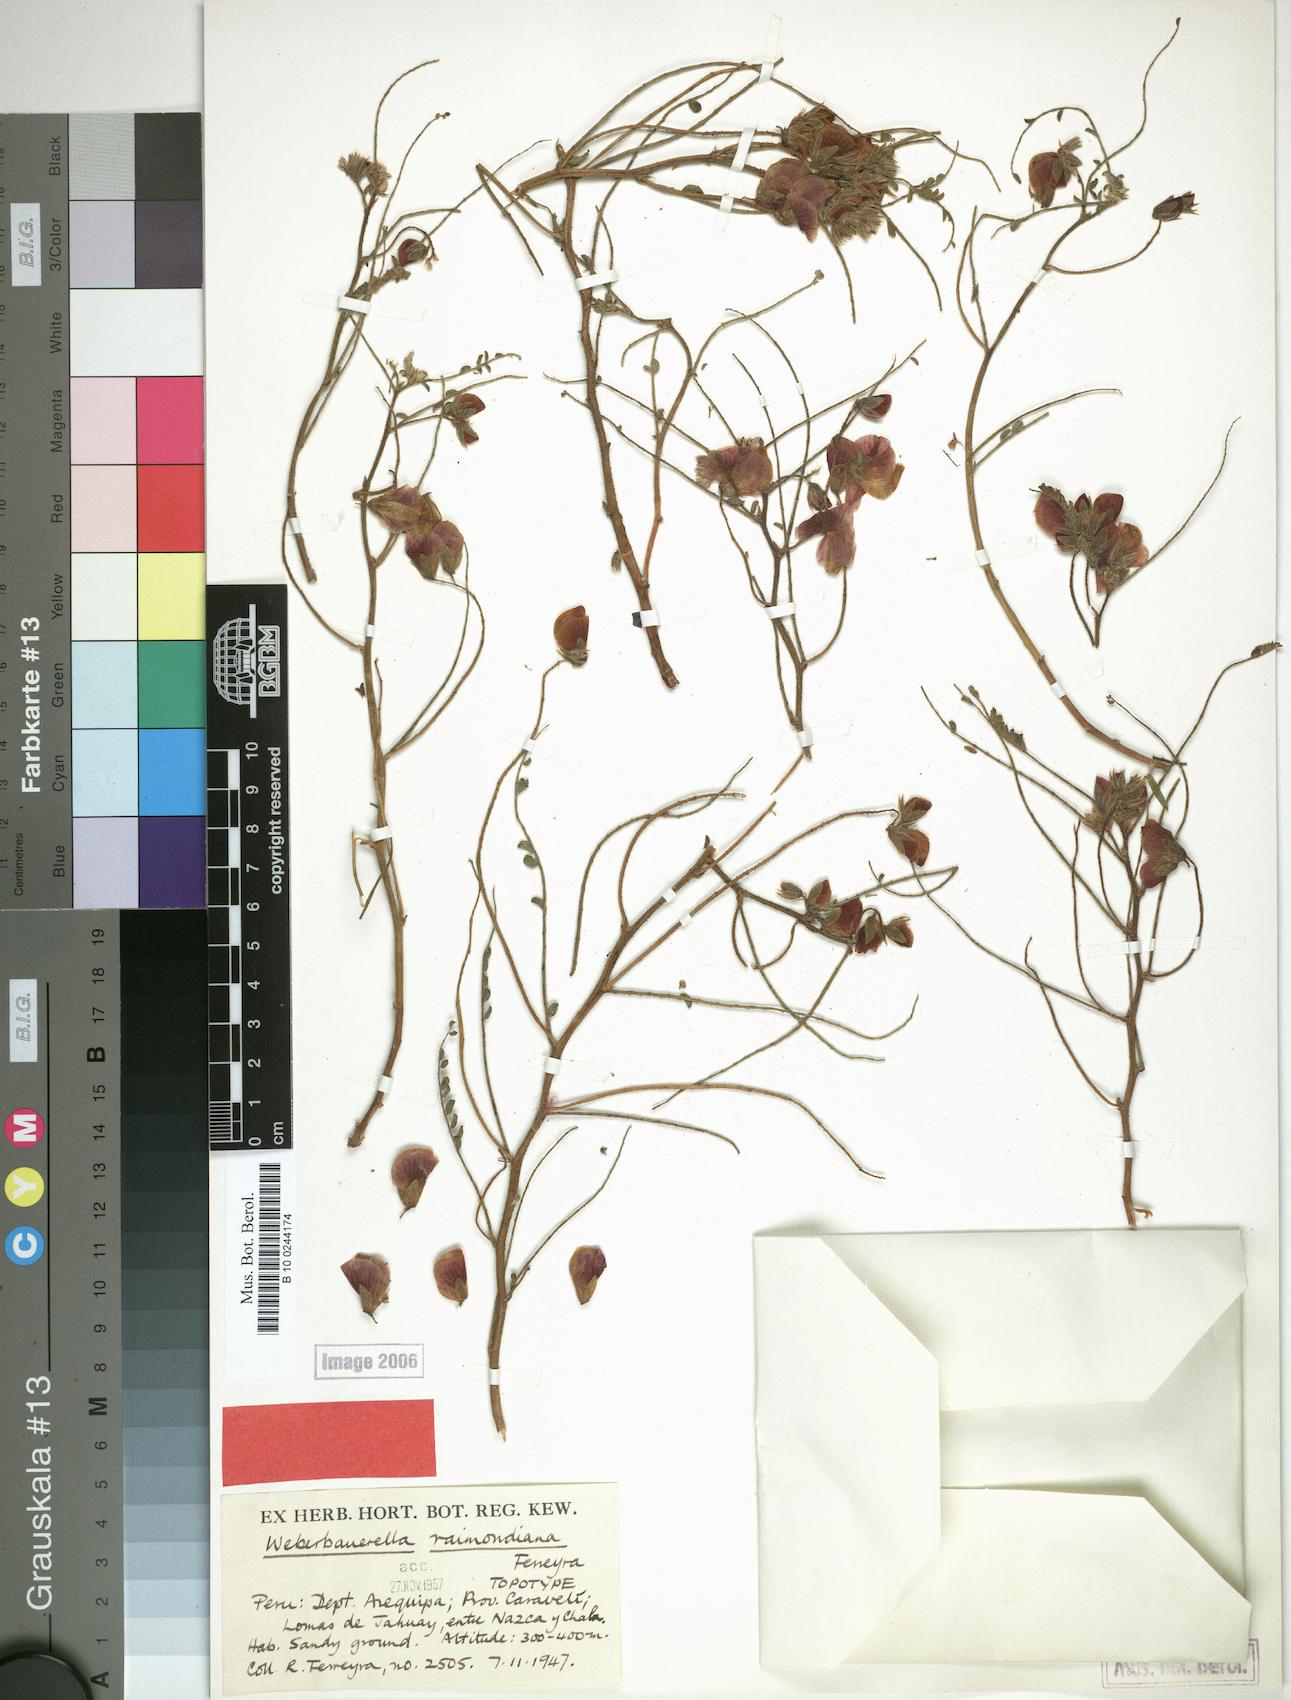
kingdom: Plantae
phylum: Tracheophyta
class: Magnoliopsida
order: Fabales
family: Fabaceae
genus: Weberbauerella
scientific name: Weberbauerella raimondiana
